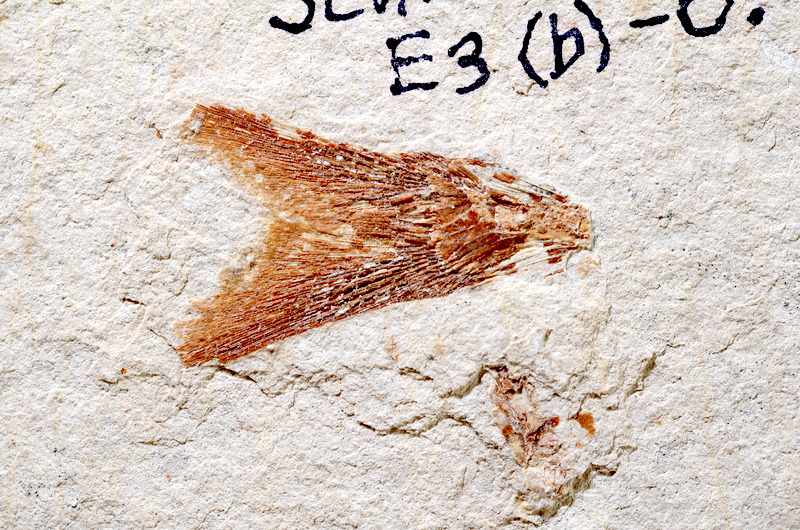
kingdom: Animalia
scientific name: Animalia
